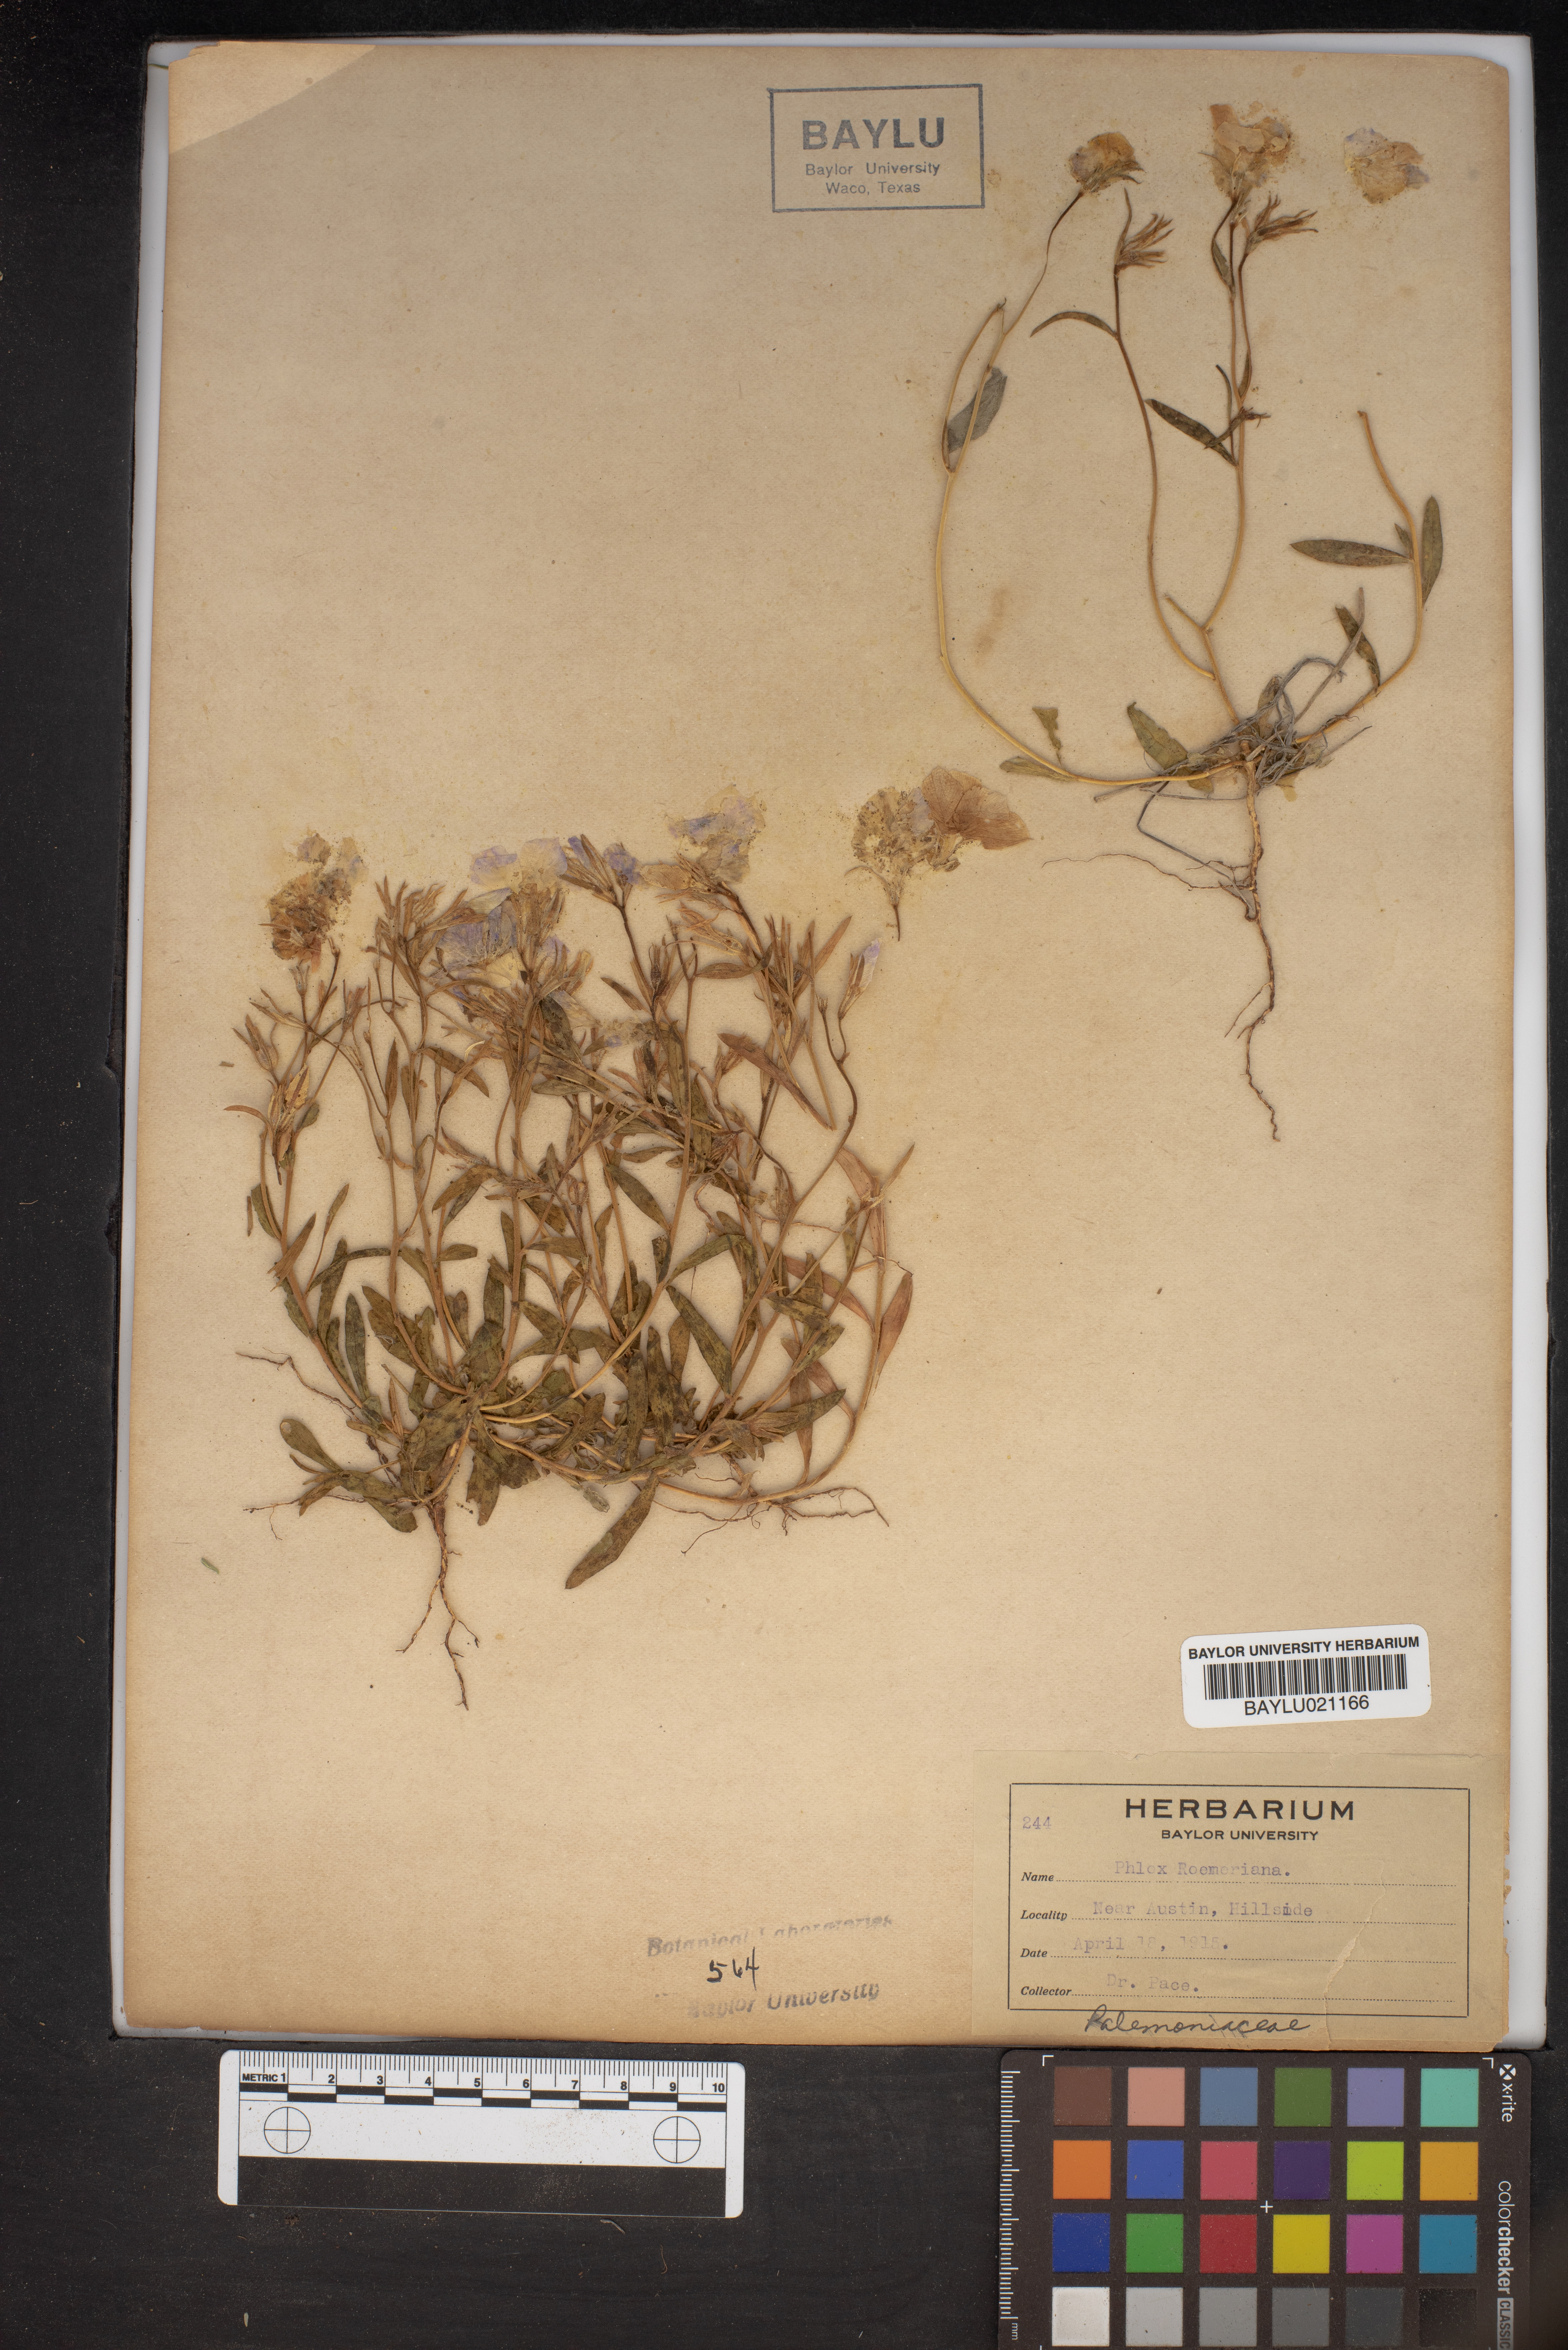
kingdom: Plantae
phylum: Tracheophyta
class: Magnoliopsida
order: Ericales
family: Polemoniaceae
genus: Phlox
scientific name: Phlox roemeriana
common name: Roemer's phlox
